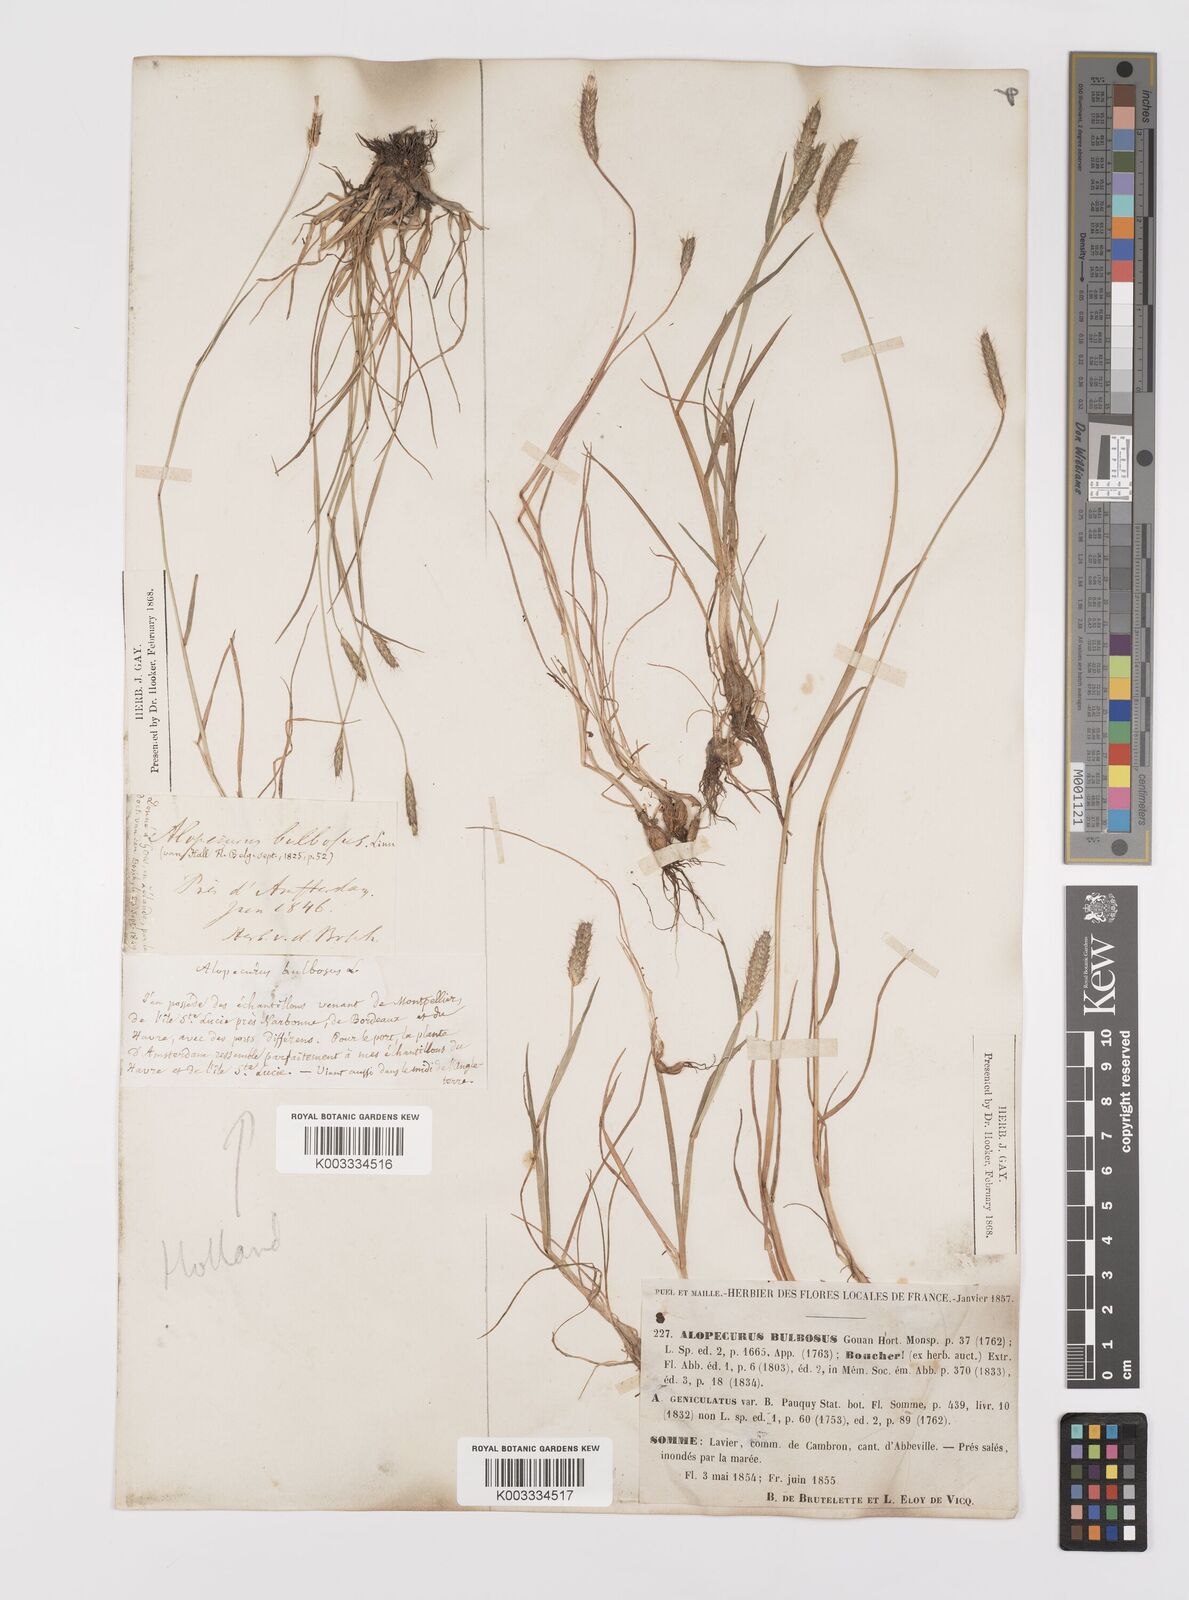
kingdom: Plantae
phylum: Tracheophyta
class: Liliopsida
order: Poales
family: Poaceae
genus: Alopecurus
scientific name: Alopecurus bulbosus
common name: Bulbous foxtail
